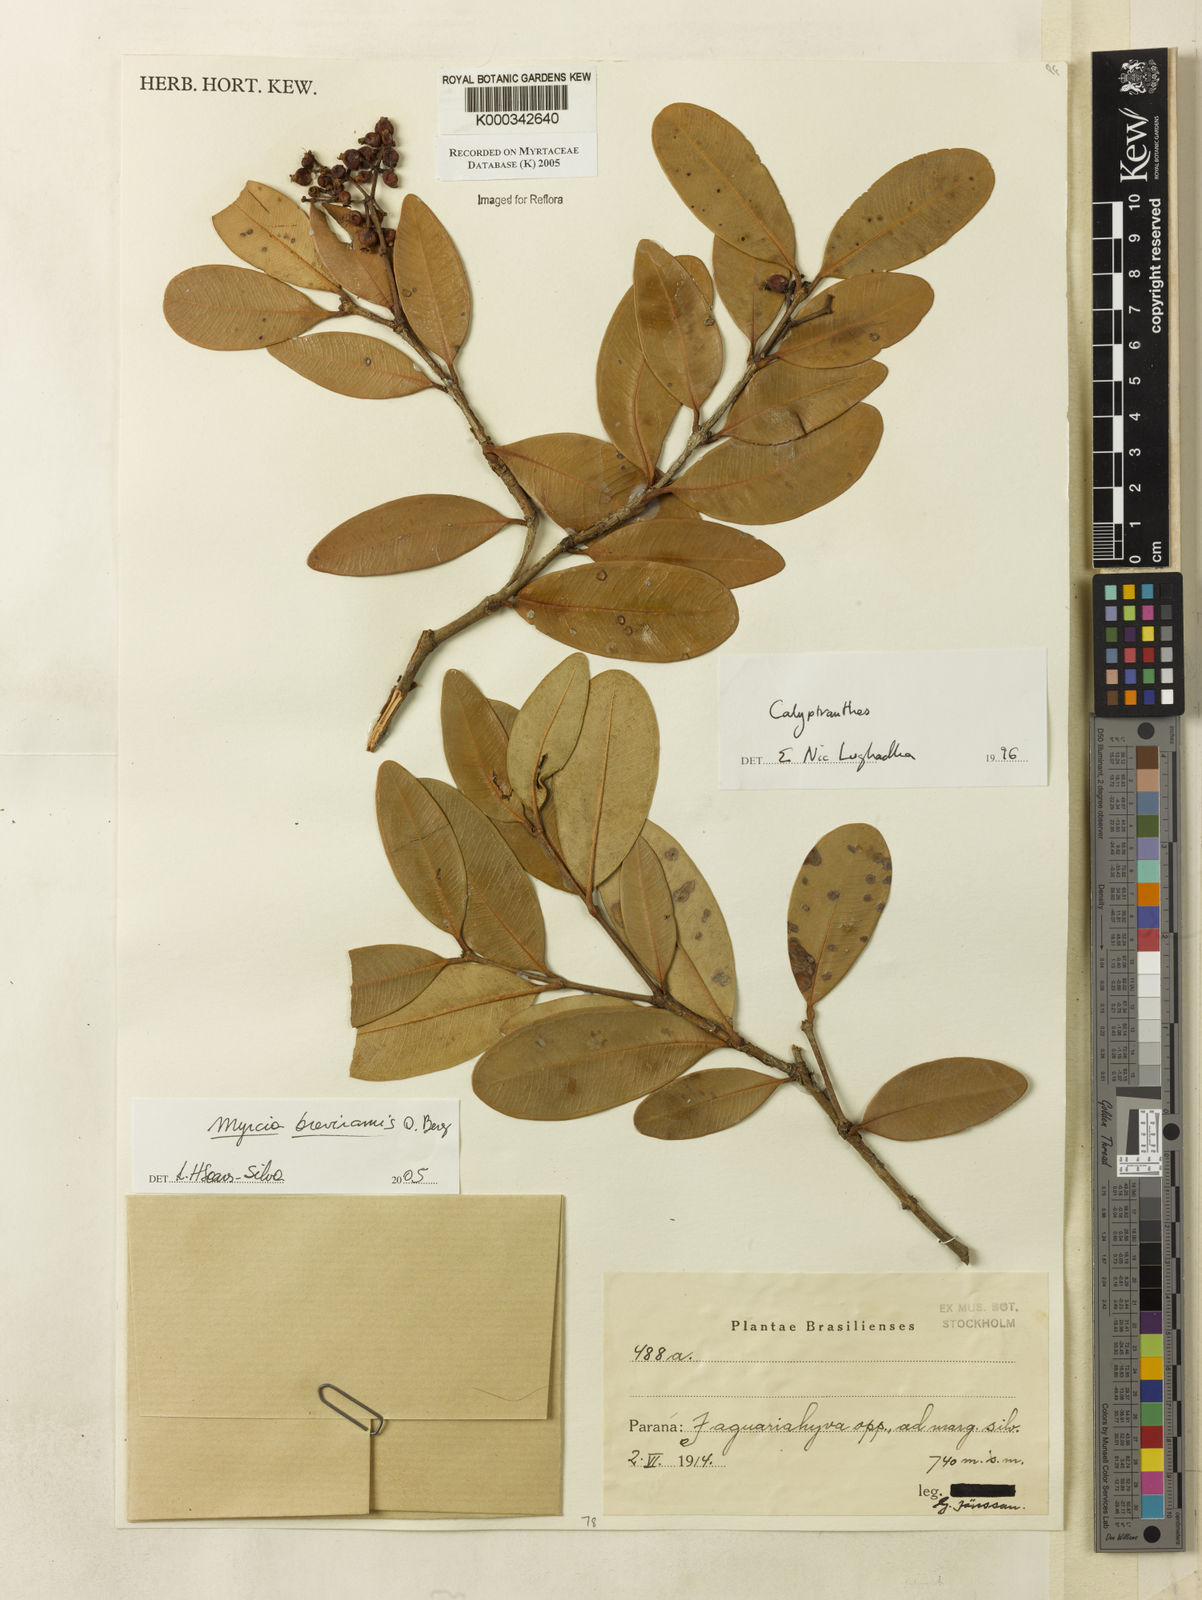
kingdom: Plantae
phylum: Tracheophyta
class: Magnoliopsida
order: Myrtales
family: Myrtaceae
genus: Myrcia
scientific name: Myrcia pulchra
